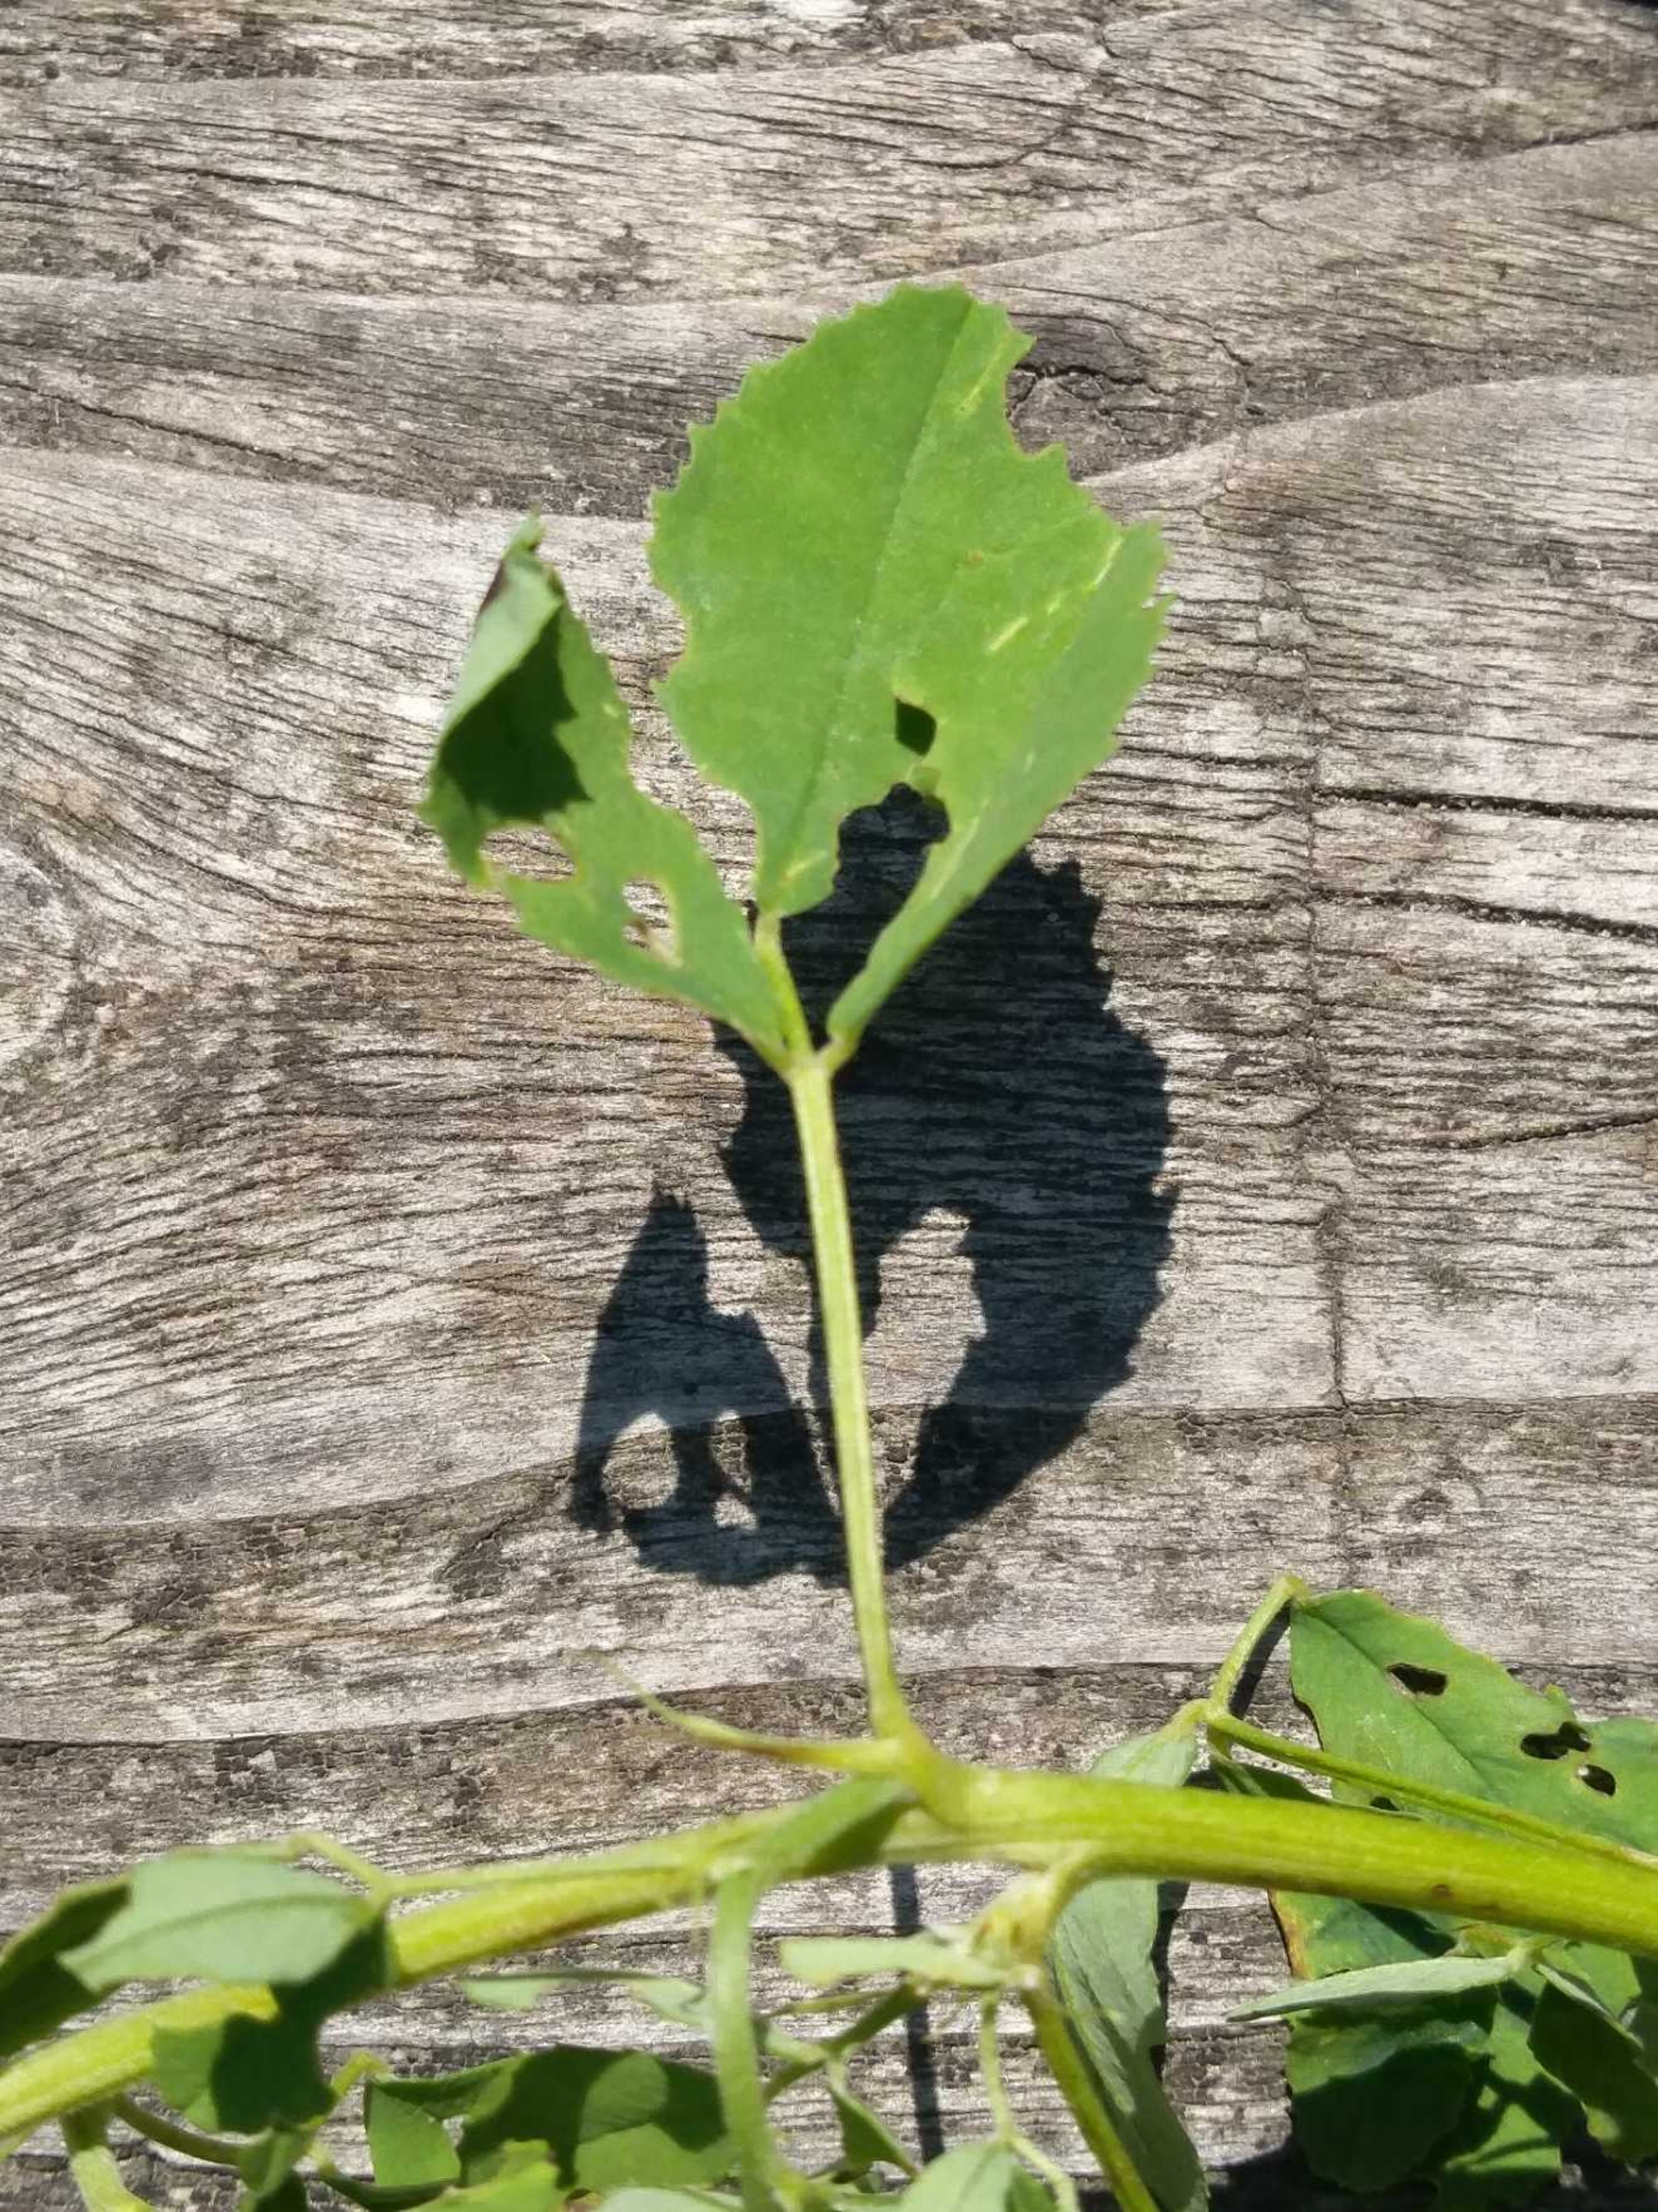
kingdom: Plantae
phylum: Tracheophyta
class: Magnoliopsida
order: Fabales
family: Fabaceae
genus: Melilotus
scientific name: Melilotus albus
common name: Hvid stenkløver
